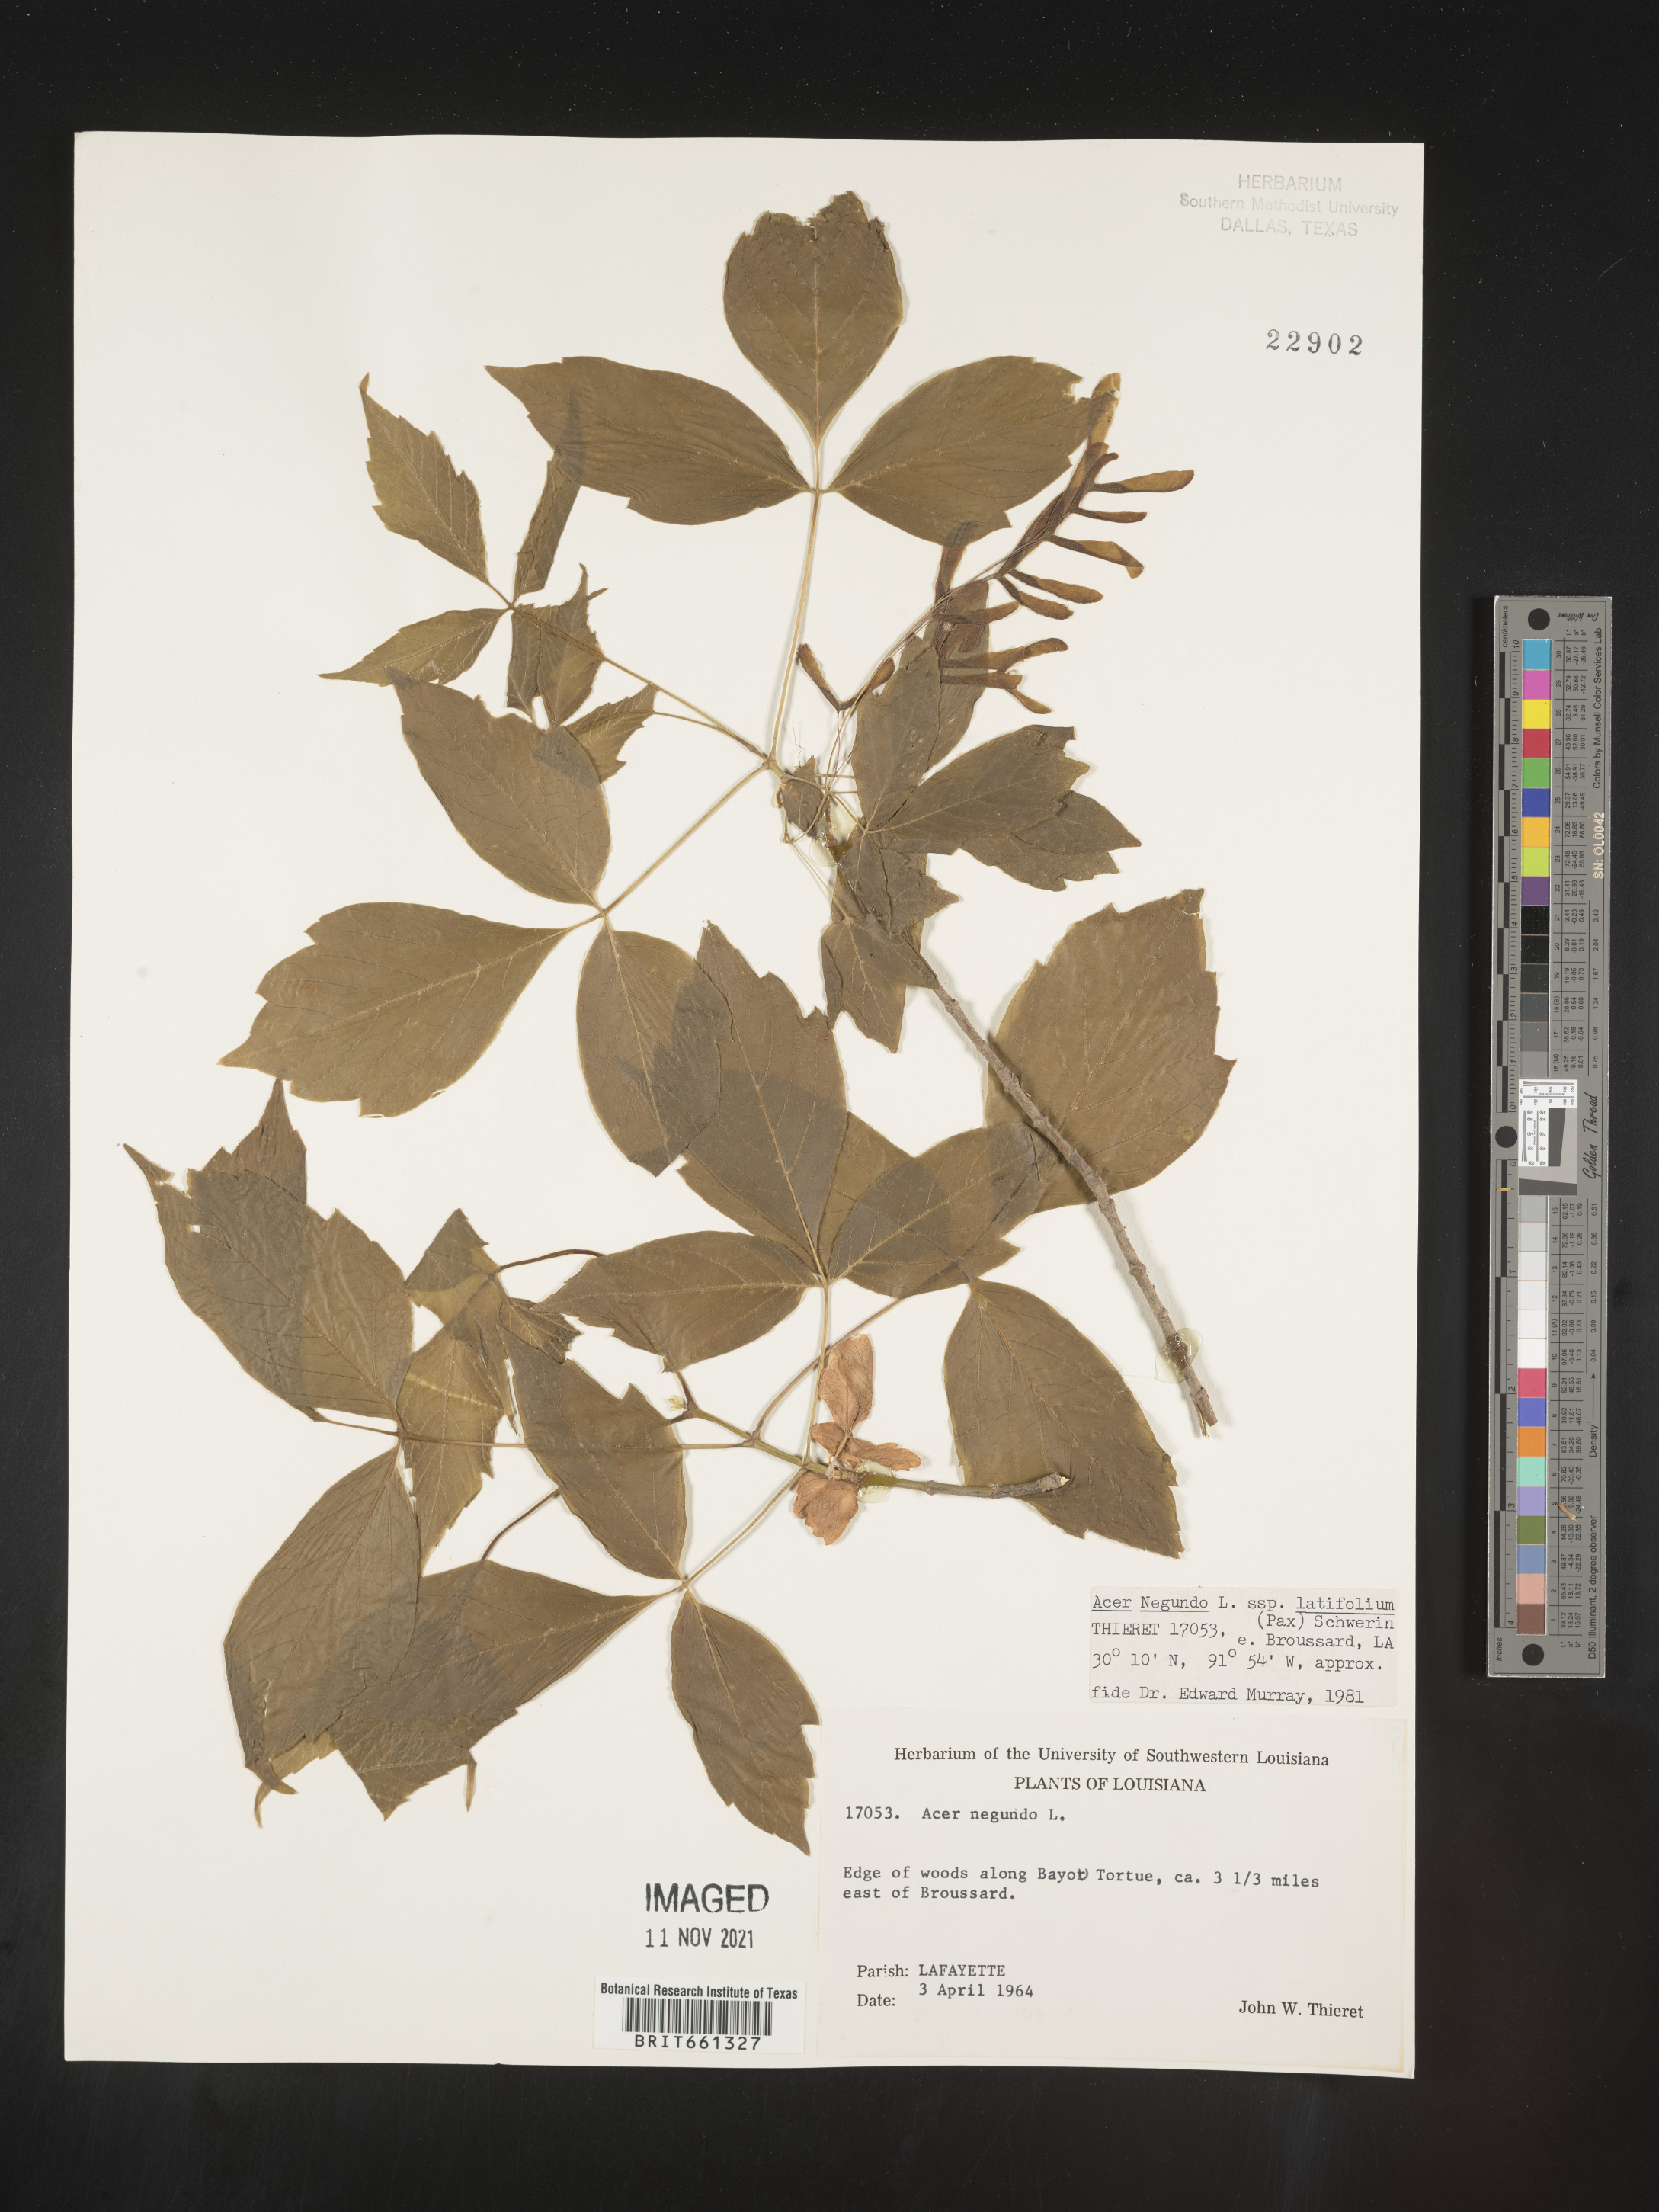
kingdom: Plantae
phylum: Tracheophyta
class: Magnoliopsida
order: Sapindales
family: Sapindaceae
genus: Acer
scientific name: Acer negundo
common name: Ashleaf maple
